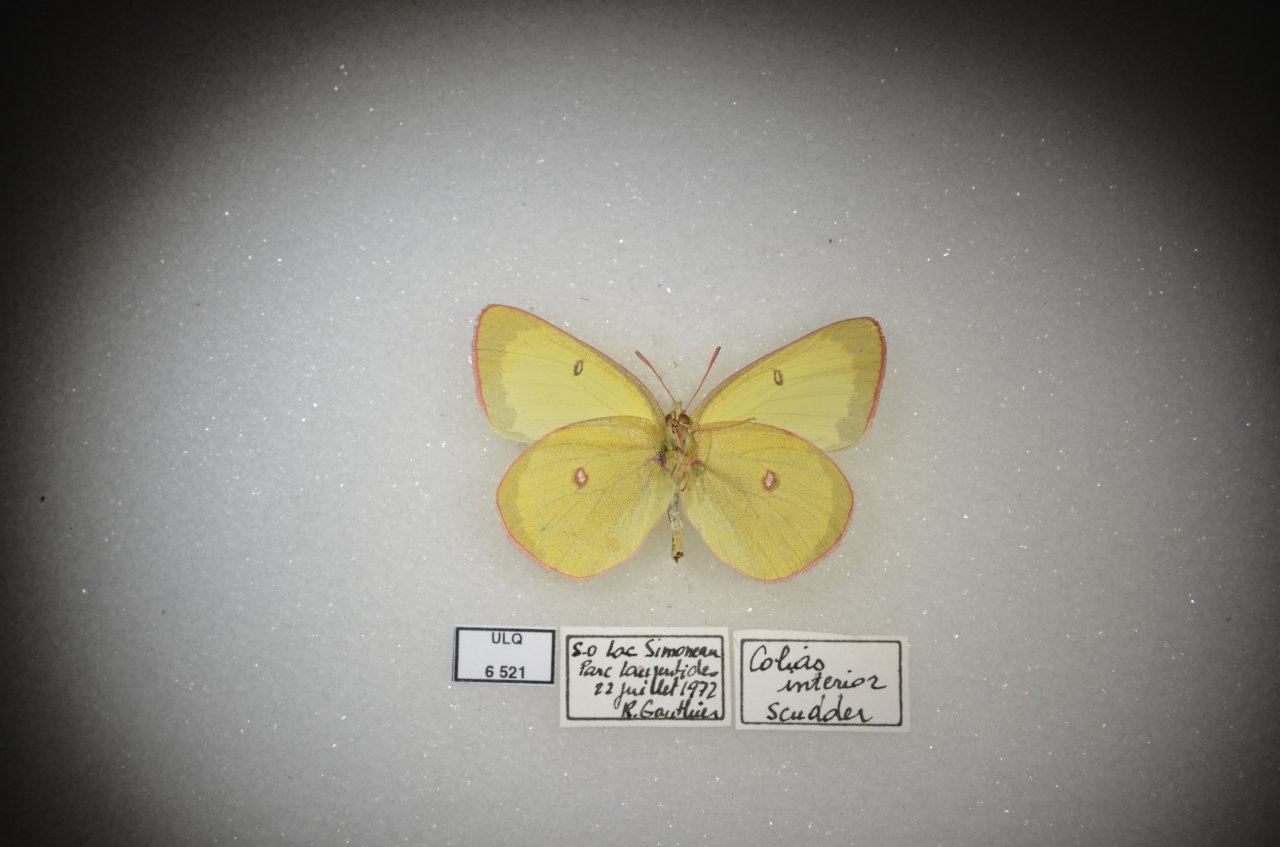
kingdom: Animalia
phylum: Arthropoda
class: Insecta
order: Lepidoptera
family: Pieridae
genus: Colias
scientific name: Colias interior
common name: Pink-edged Sulphur
